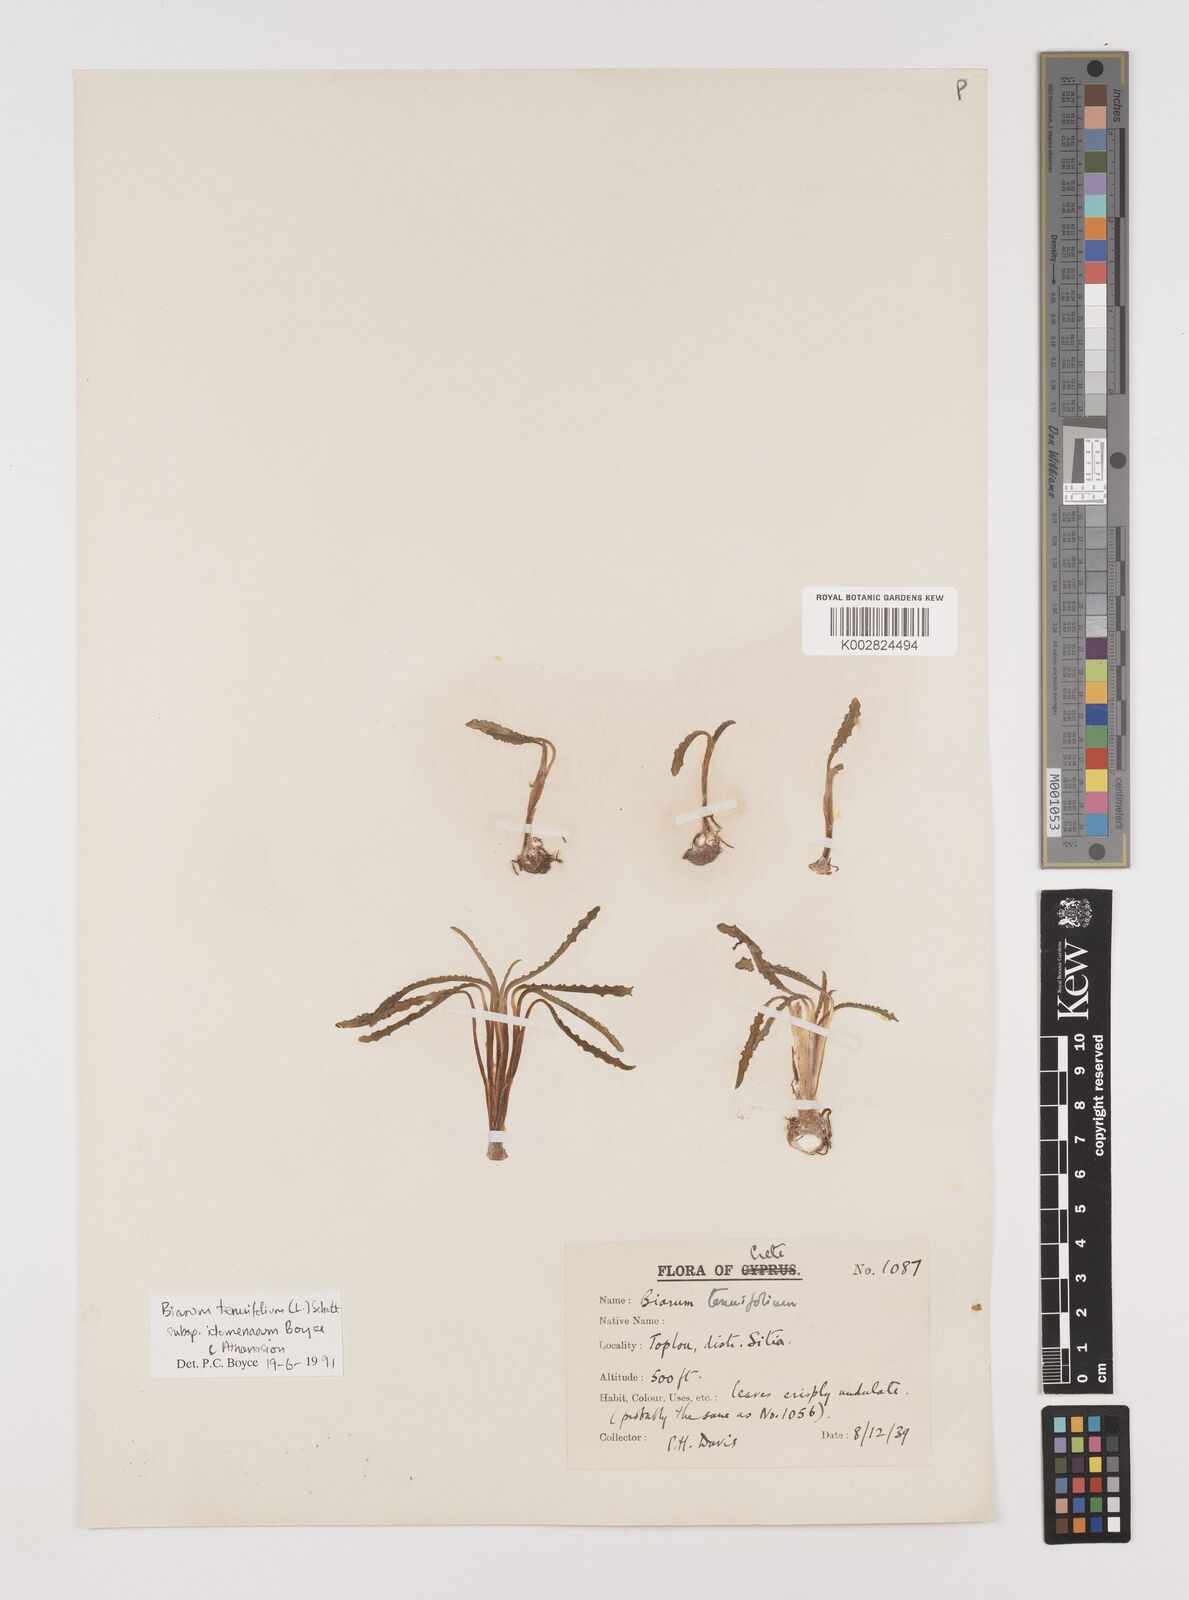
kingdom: Plantae
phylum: Tracheophyta
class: Liliopsida
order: Alismatales
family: Araceae
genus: Biarum
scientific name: Biarum tenuifolium
